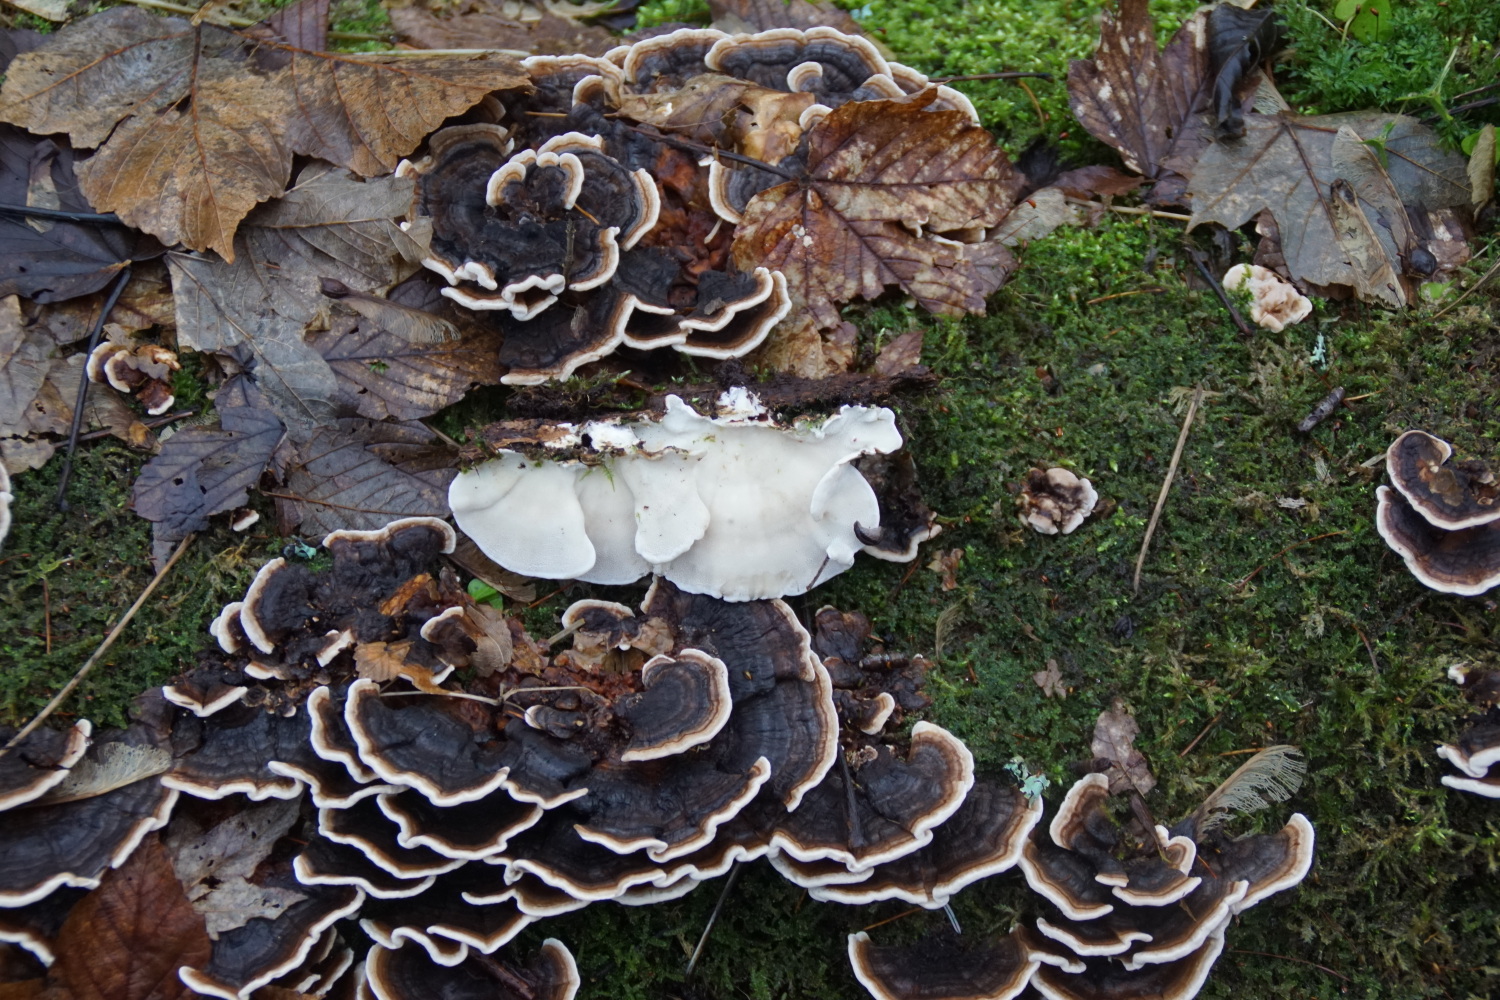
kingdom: Fungi
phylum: Basidiomycota
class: Agaricomycetes
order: Polyporales
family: Polyporaceae
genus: Trametes
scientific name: Trametes versicolor
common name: broget læderporesvamp
